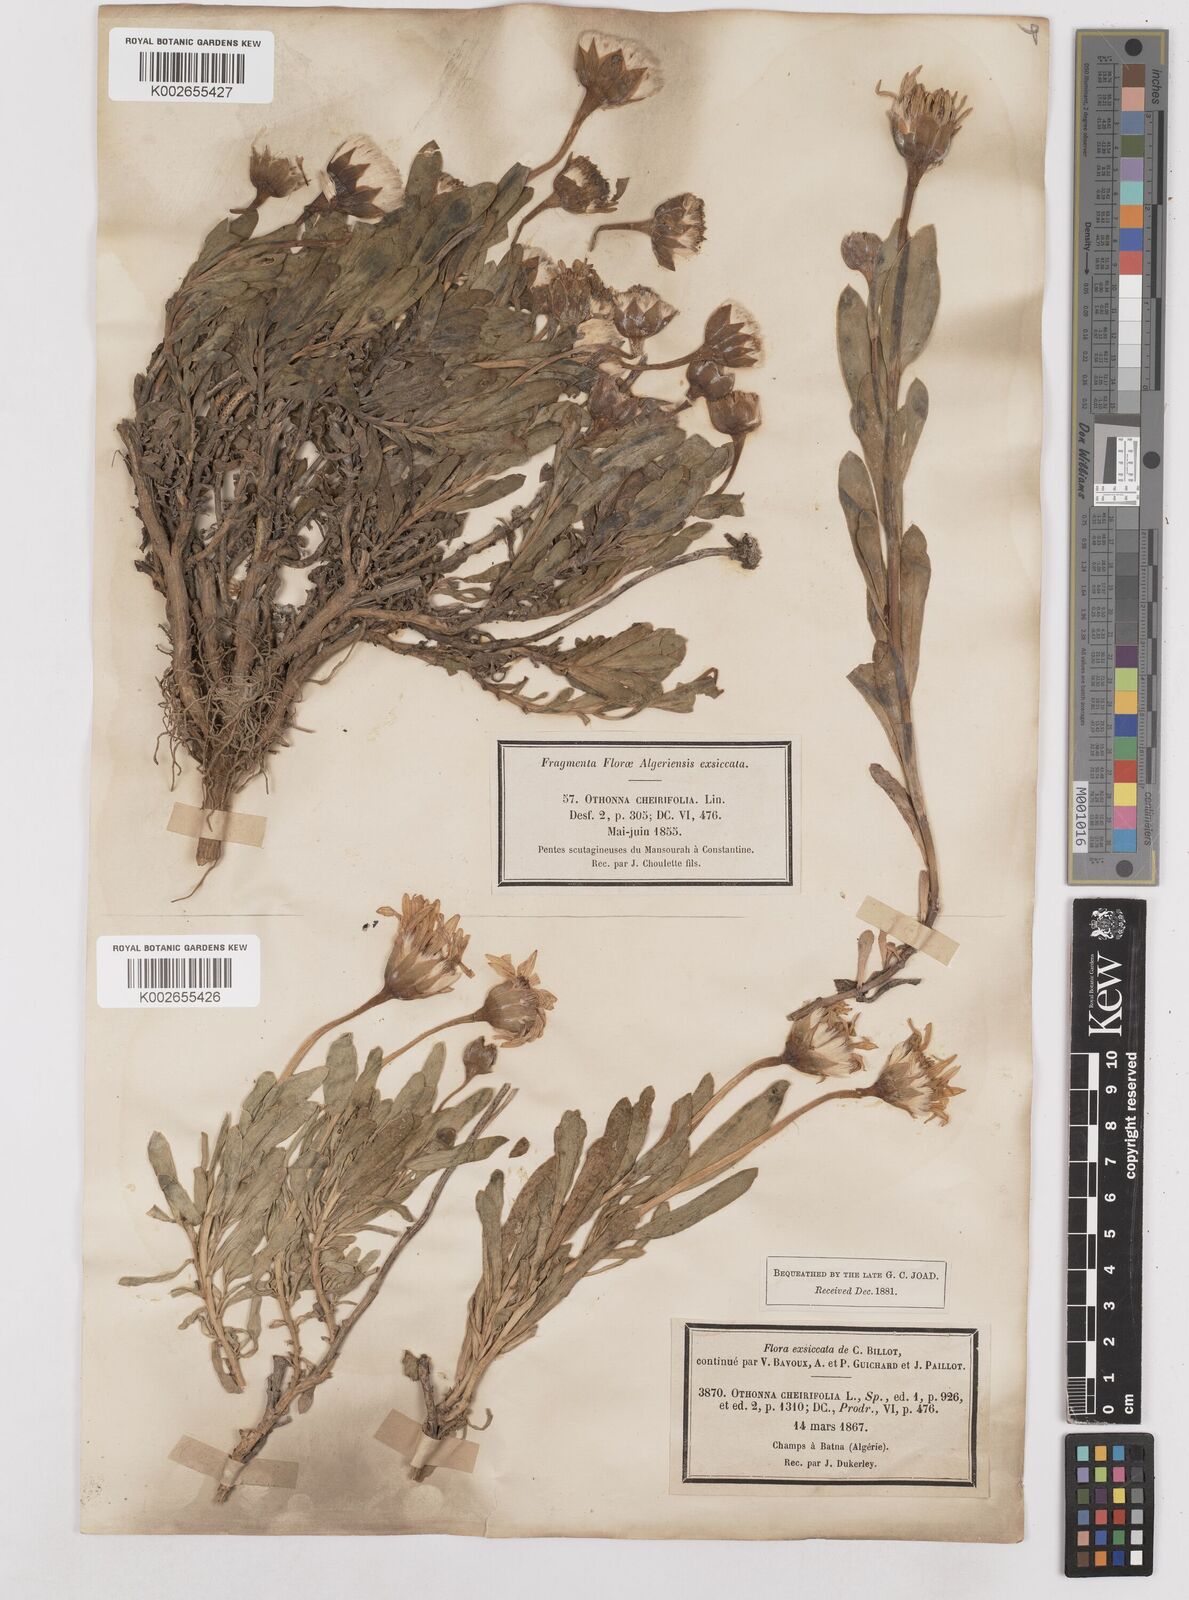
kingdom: Plantae
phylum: Tracheophyta
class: Magnoliopsida
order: Asterales
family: Asteraceae
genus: Hertia
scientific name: Hertia cheirifolia
